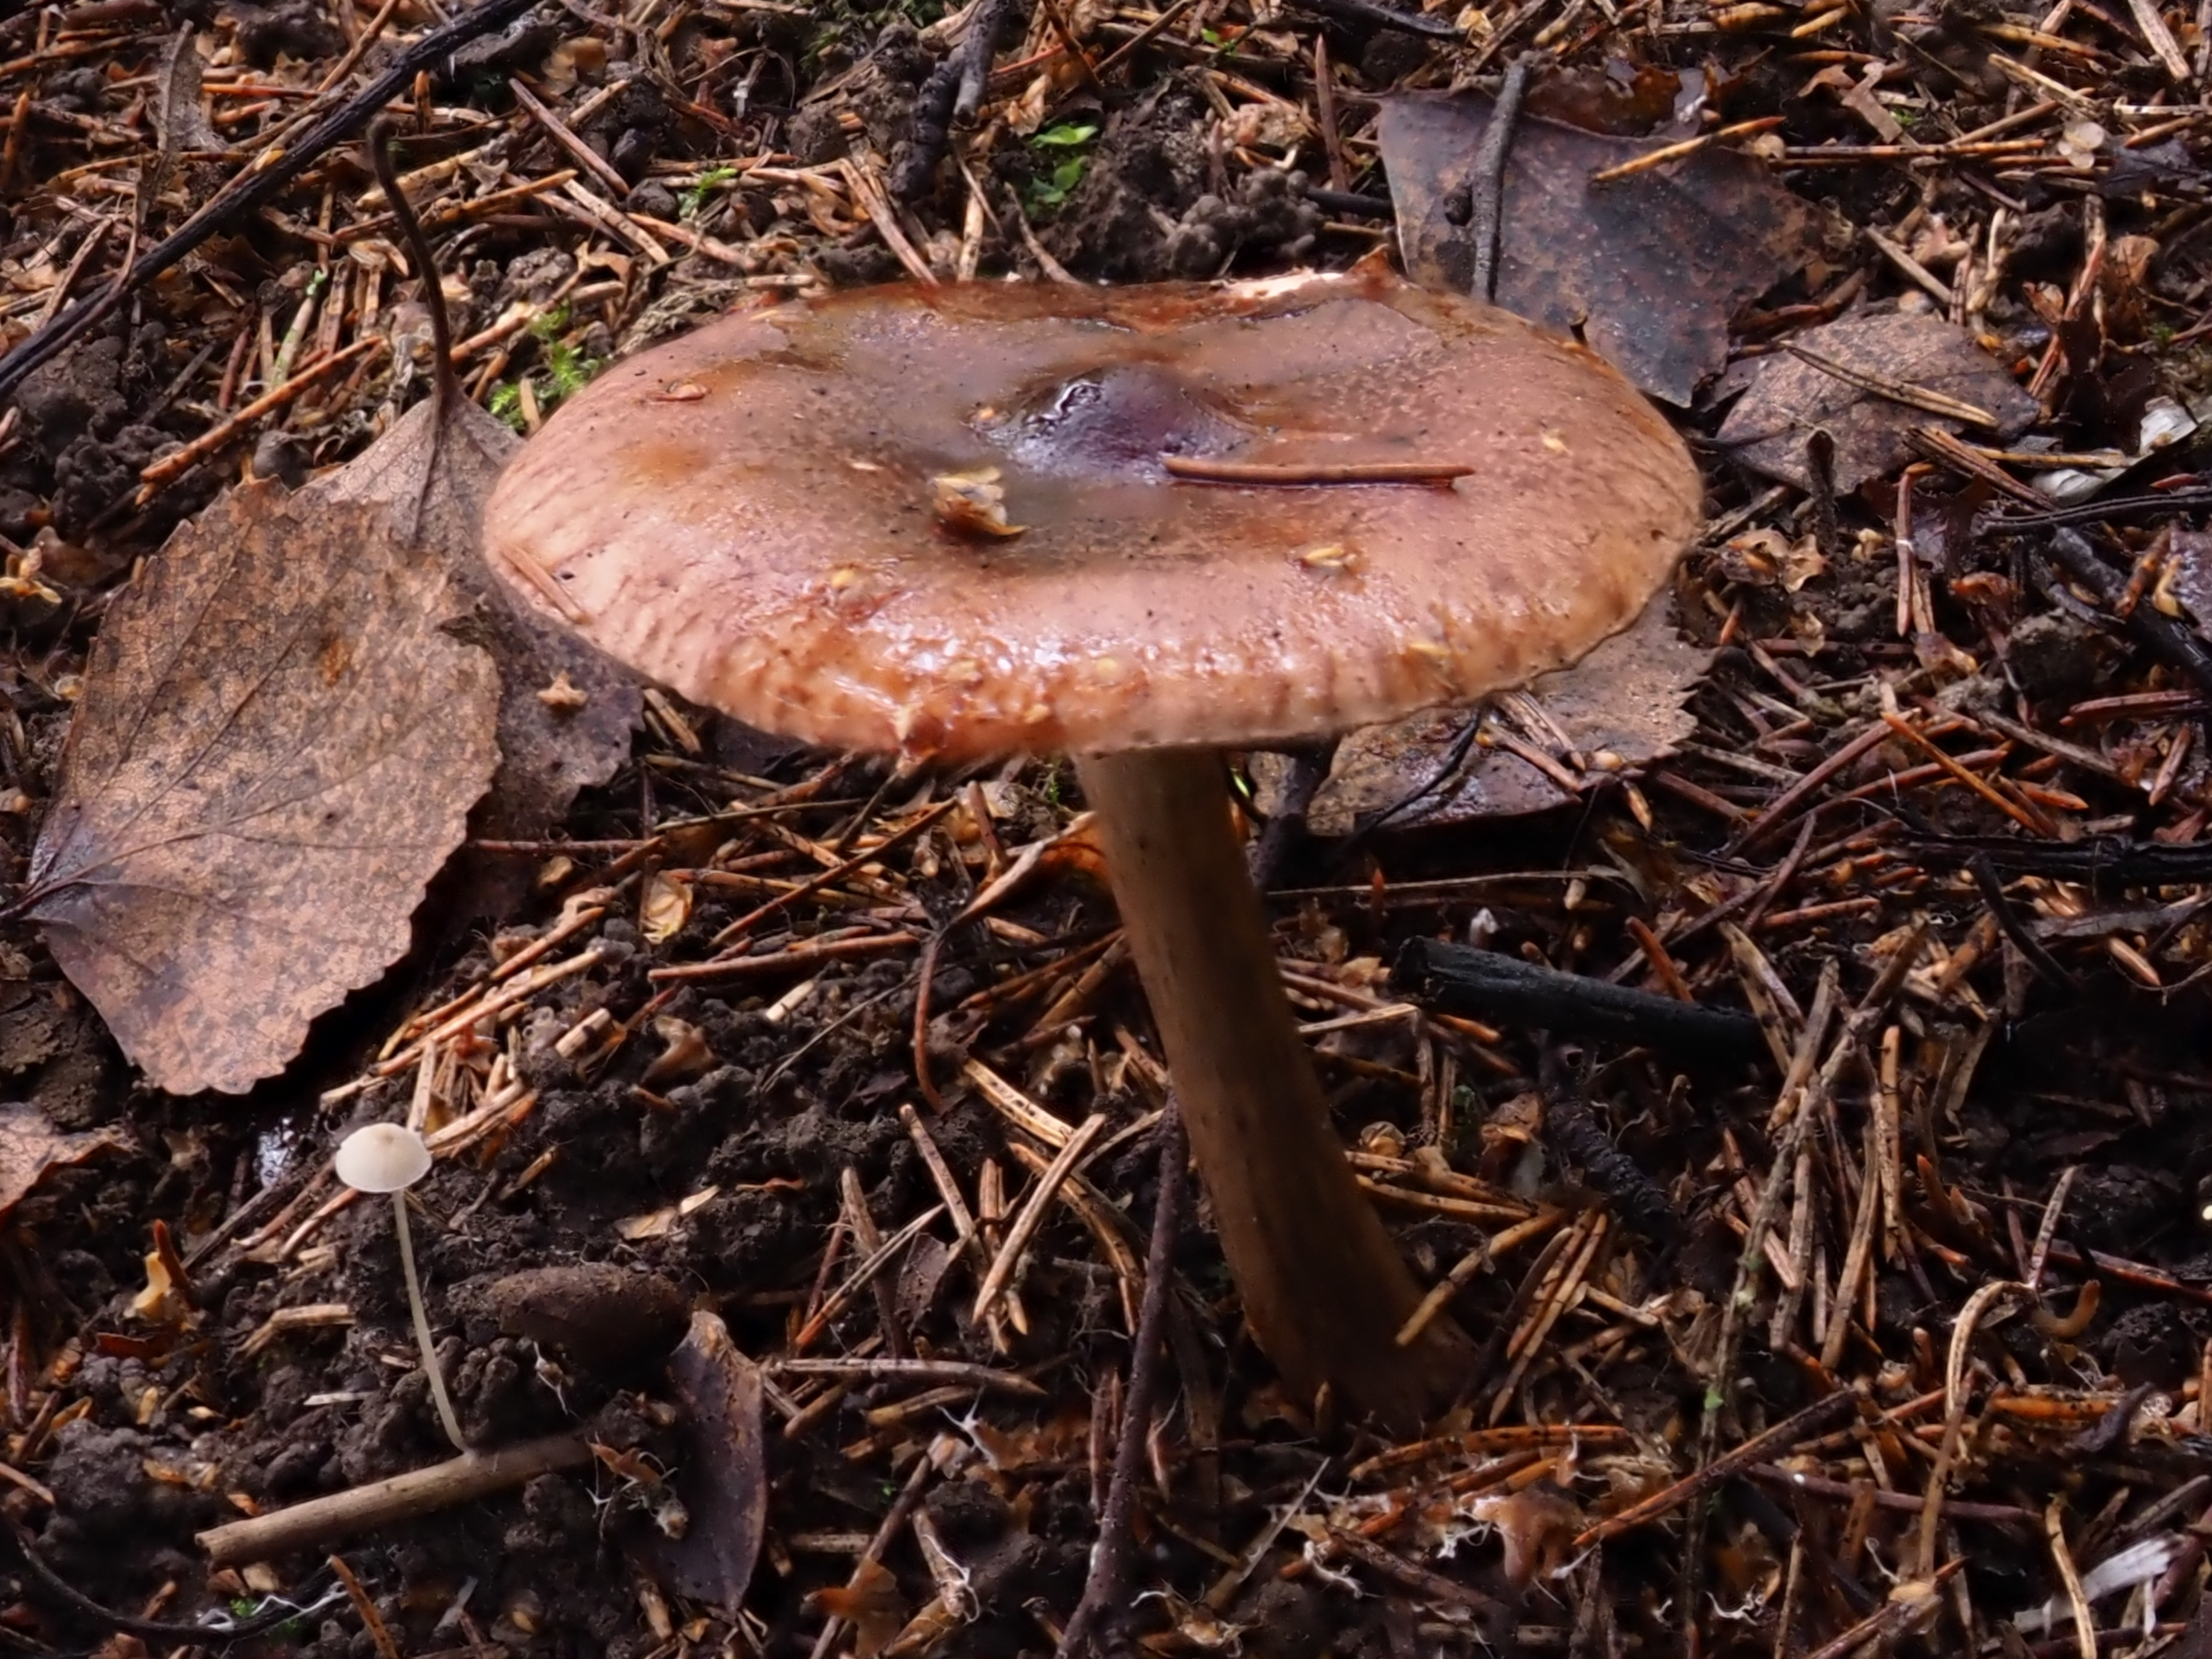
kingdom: Fungi
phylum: Basidiomycota
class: Agaricomycetes
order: Agaricales
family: Tricholomataceae
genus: Tricholoma
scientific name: Tricholoma fulvum
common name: Birch knight
